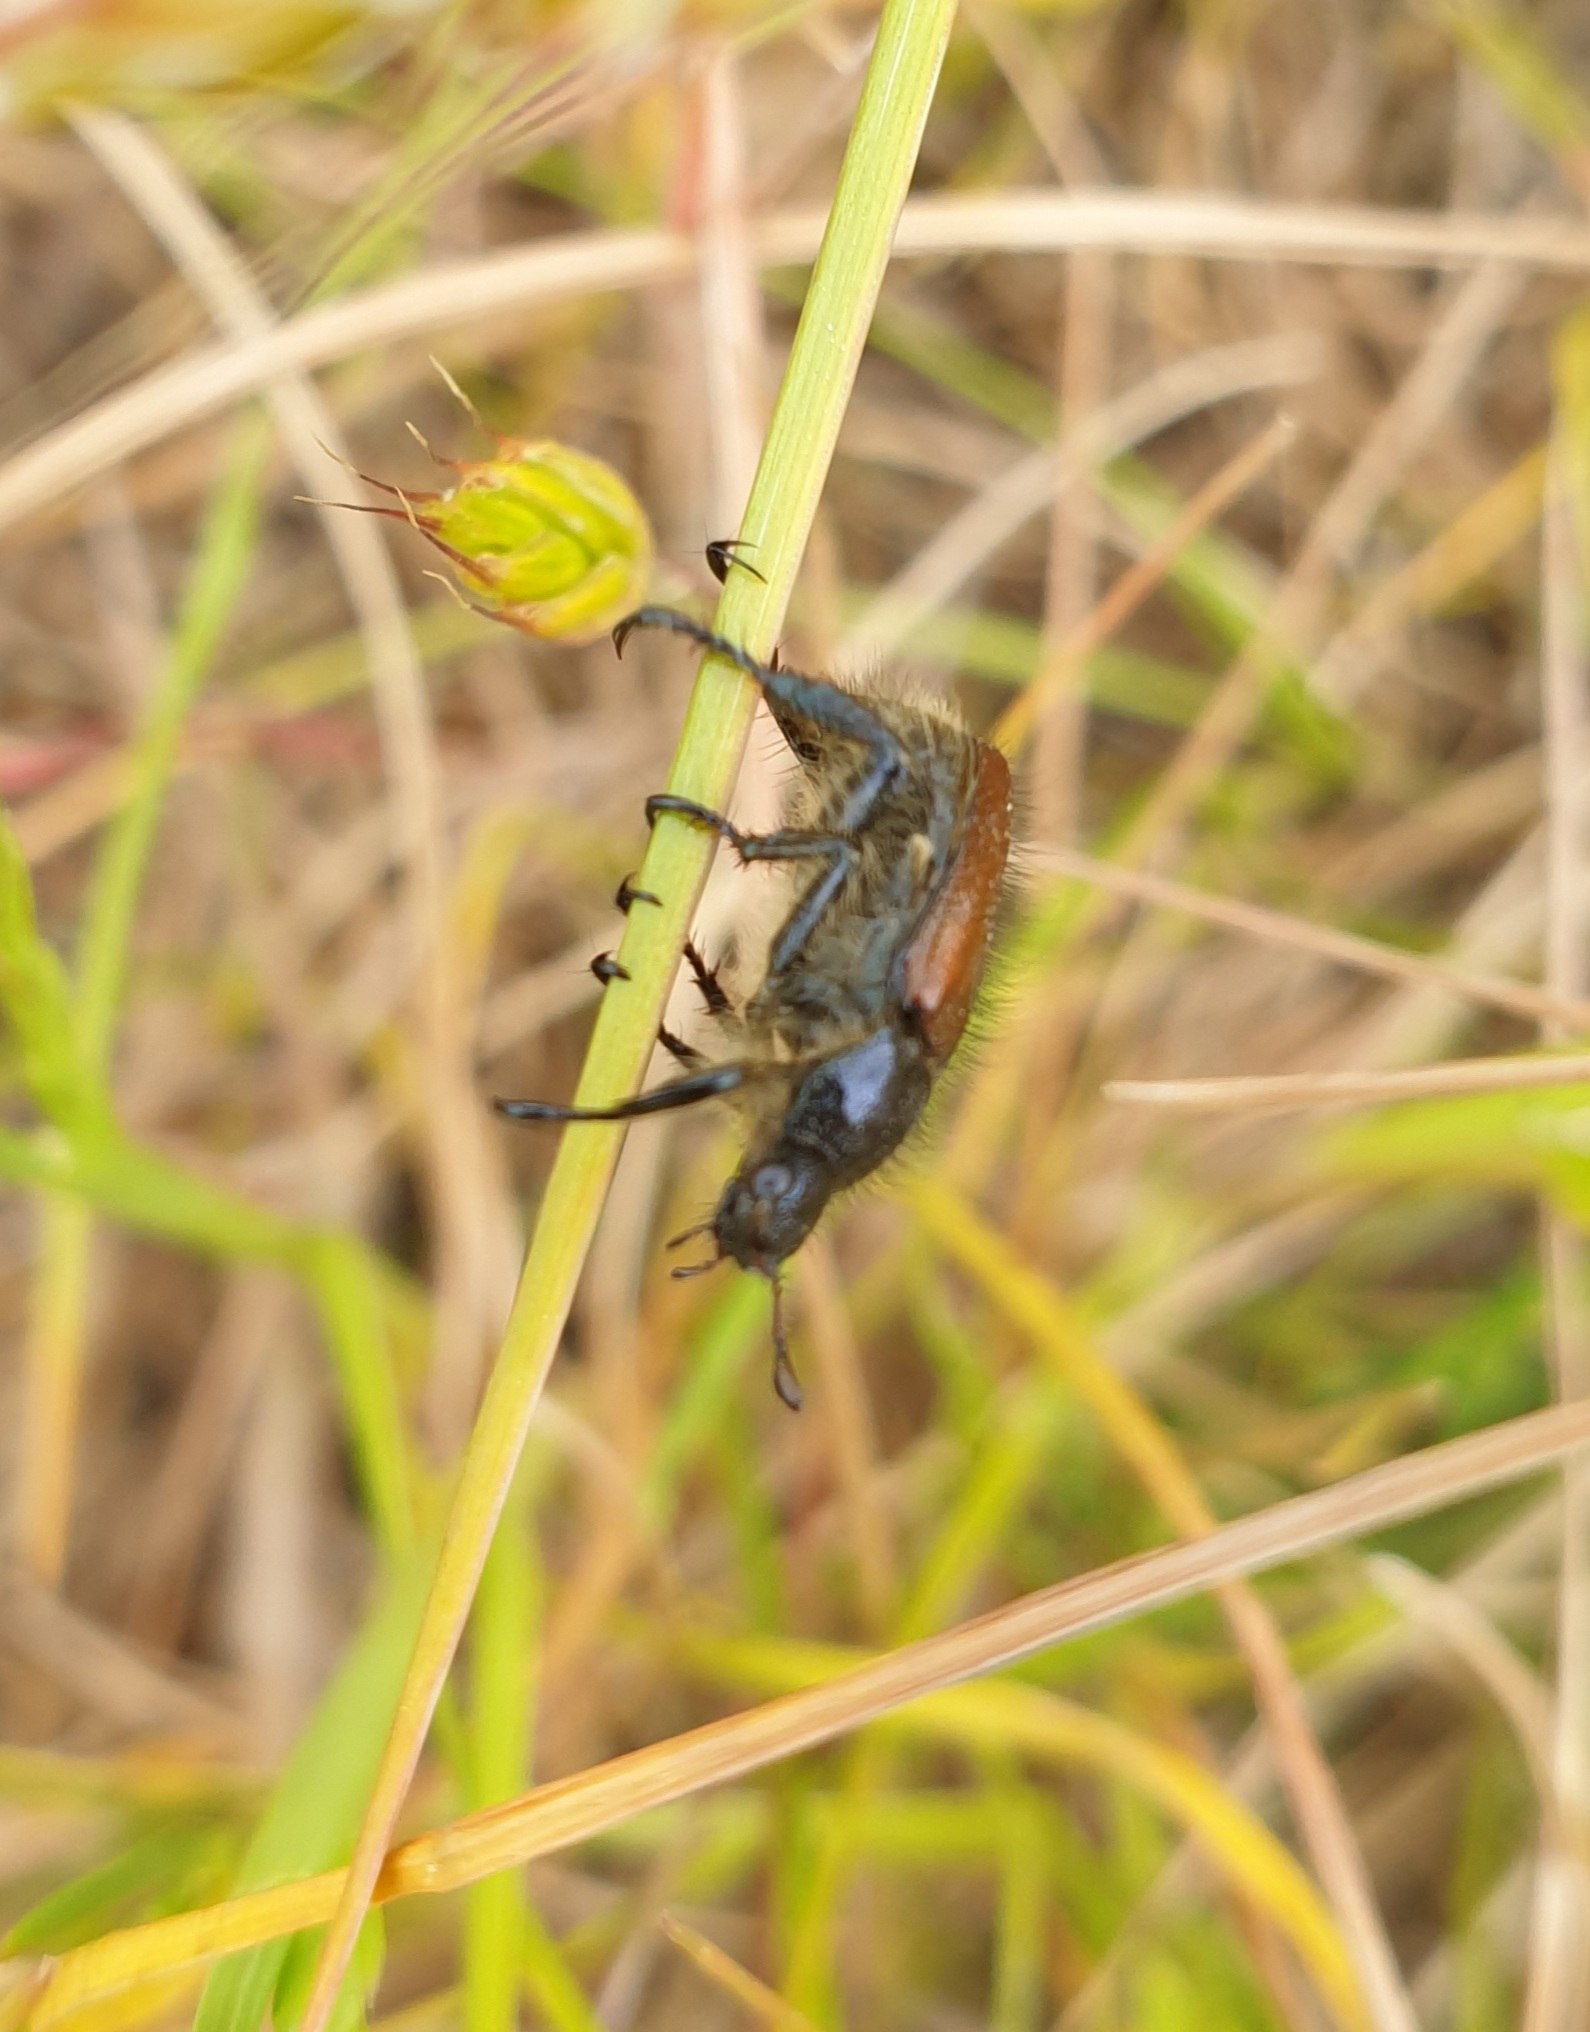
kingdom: Animalia
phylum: Arthropoda
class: Insecta
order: Coleoptera
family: Scarabaeidae
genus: Phyllopertha
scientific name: Phyllopertha horticola
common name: Gåsebille
